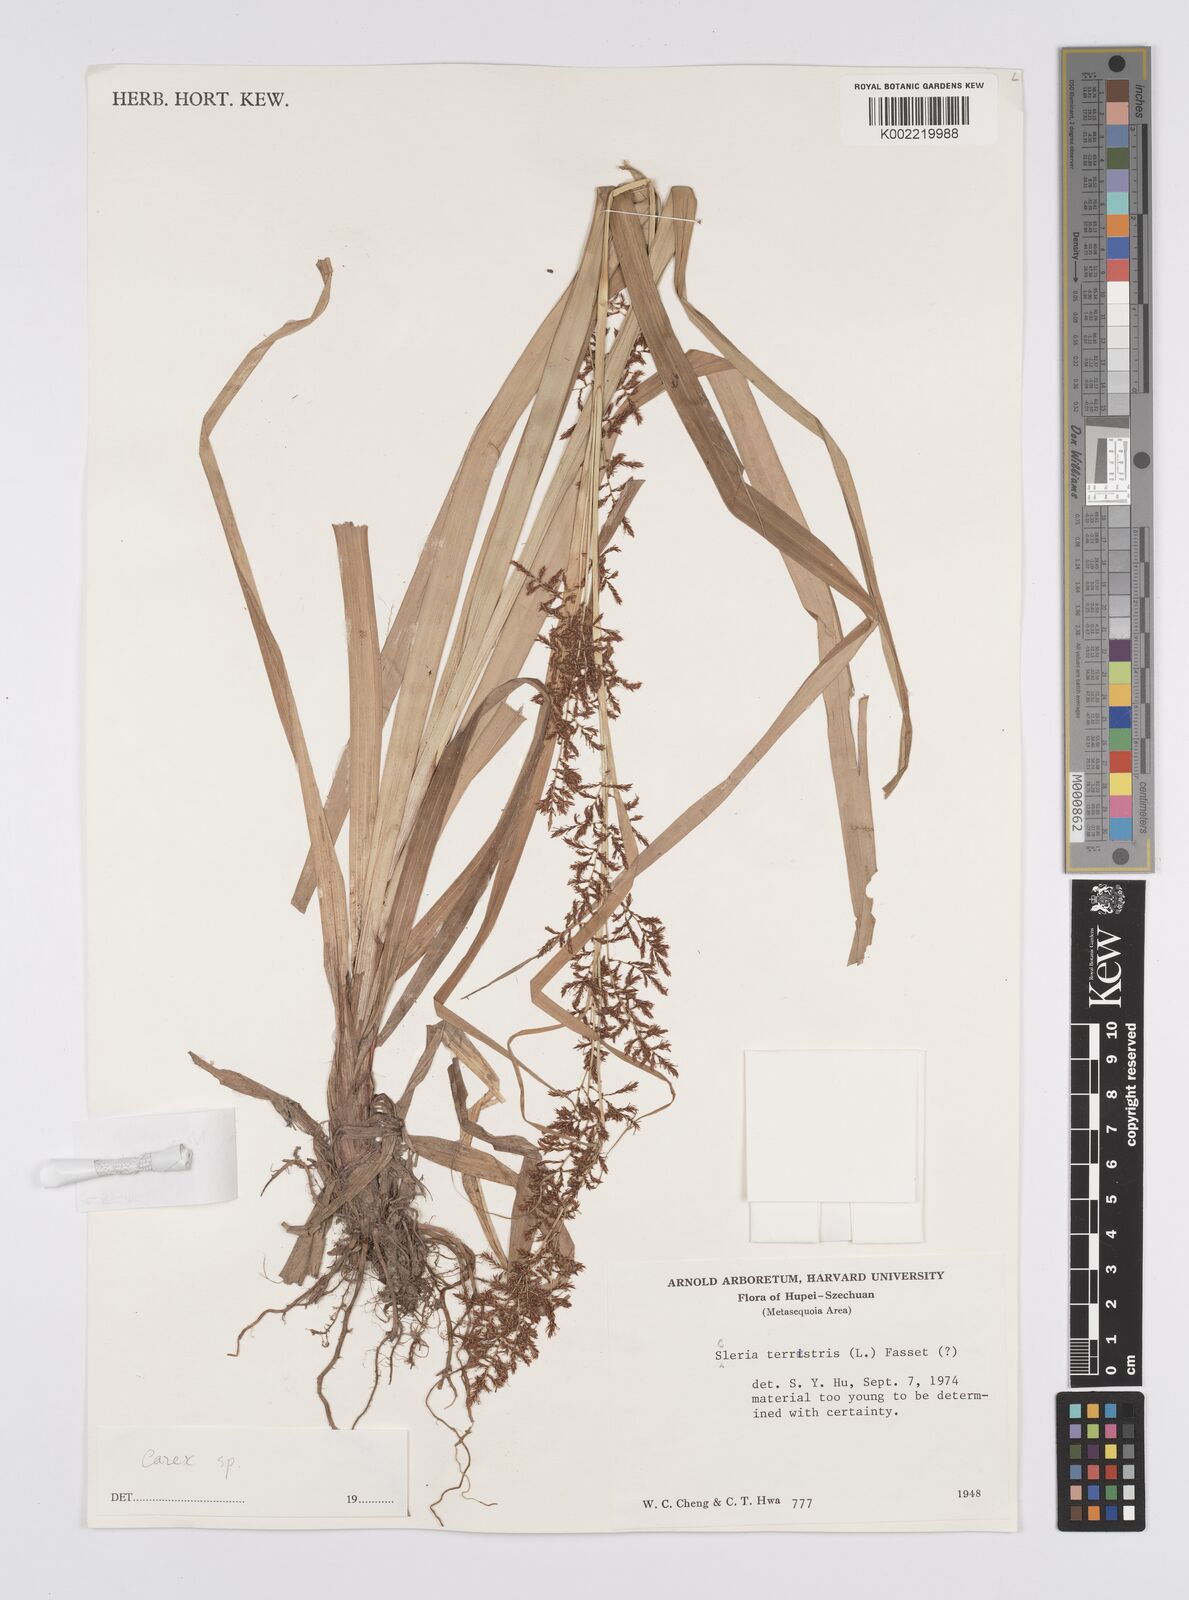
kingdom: Plantae
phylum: Tracheophyta
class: Liliopsida
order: Poales
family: Cyperaceae
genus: Carex
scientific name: Carex filicina
